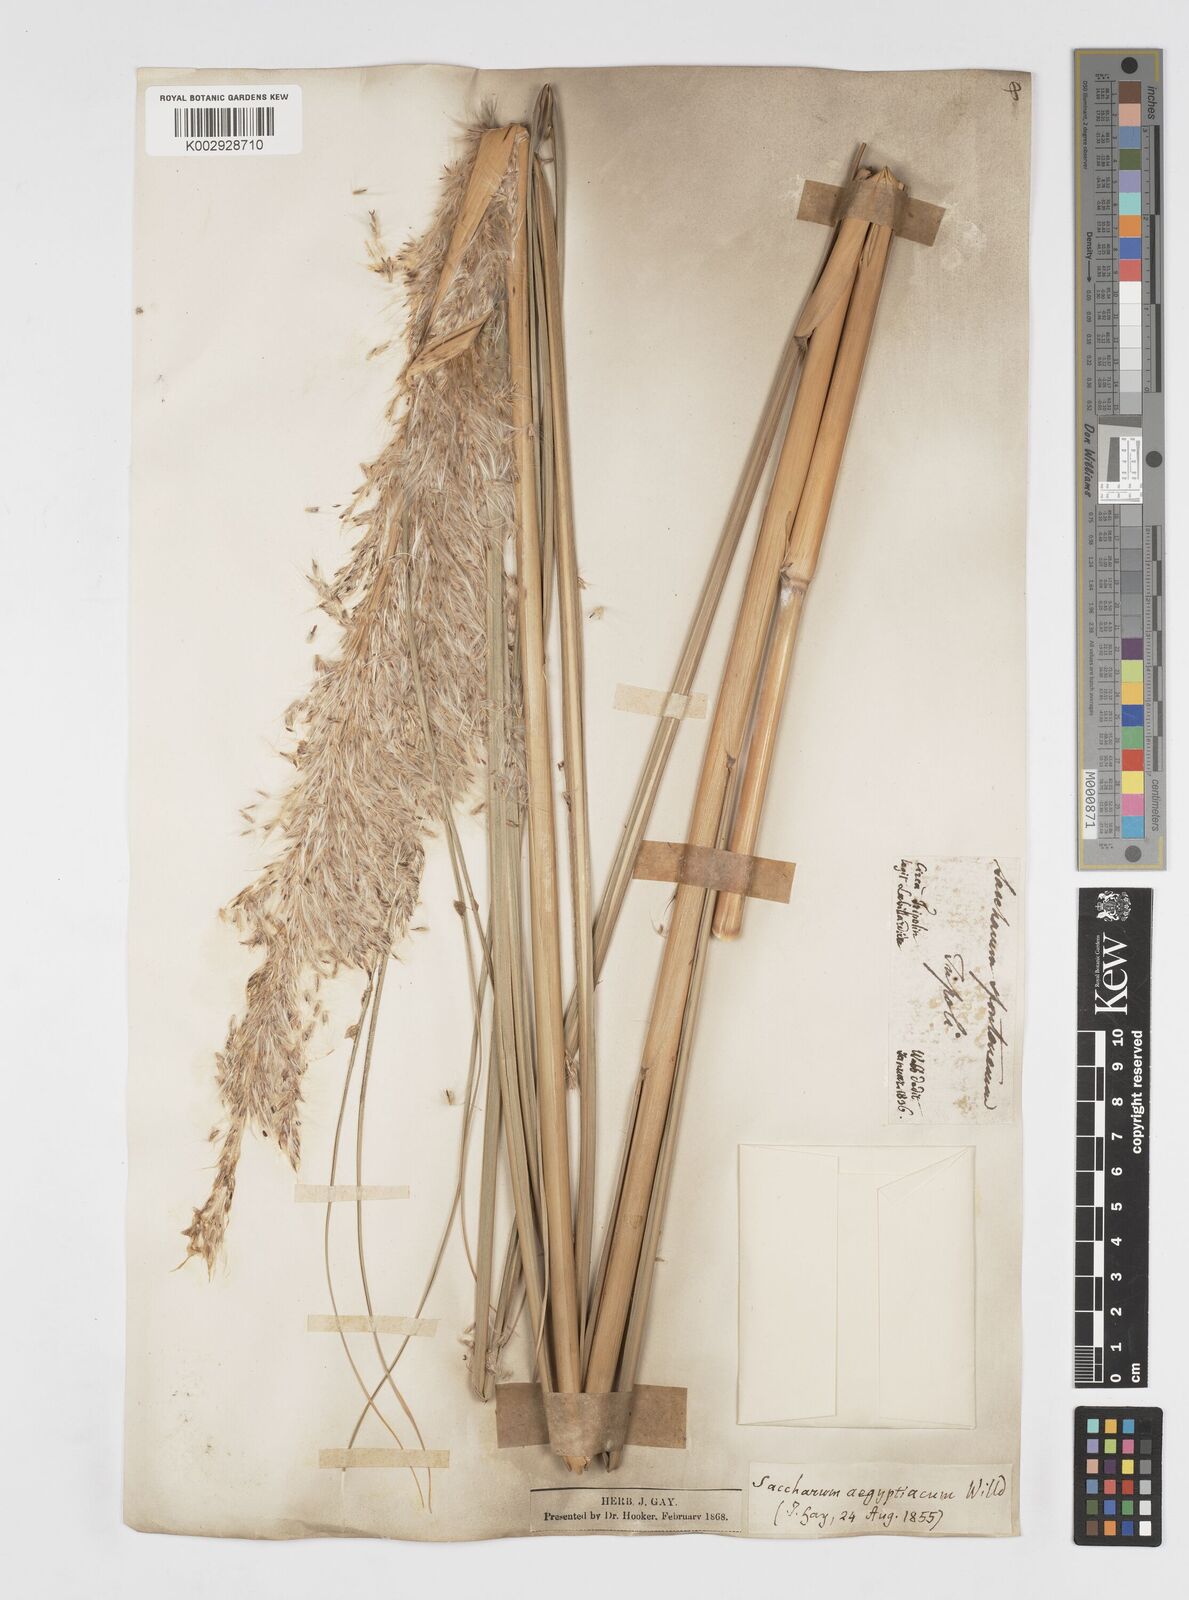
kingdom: Plantae
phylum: Tracheophyta
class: Liliopsida
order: Poales
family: Poaceae
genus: Saccharum
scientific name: Saccharum spontaneum
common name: Wild sugarcane
